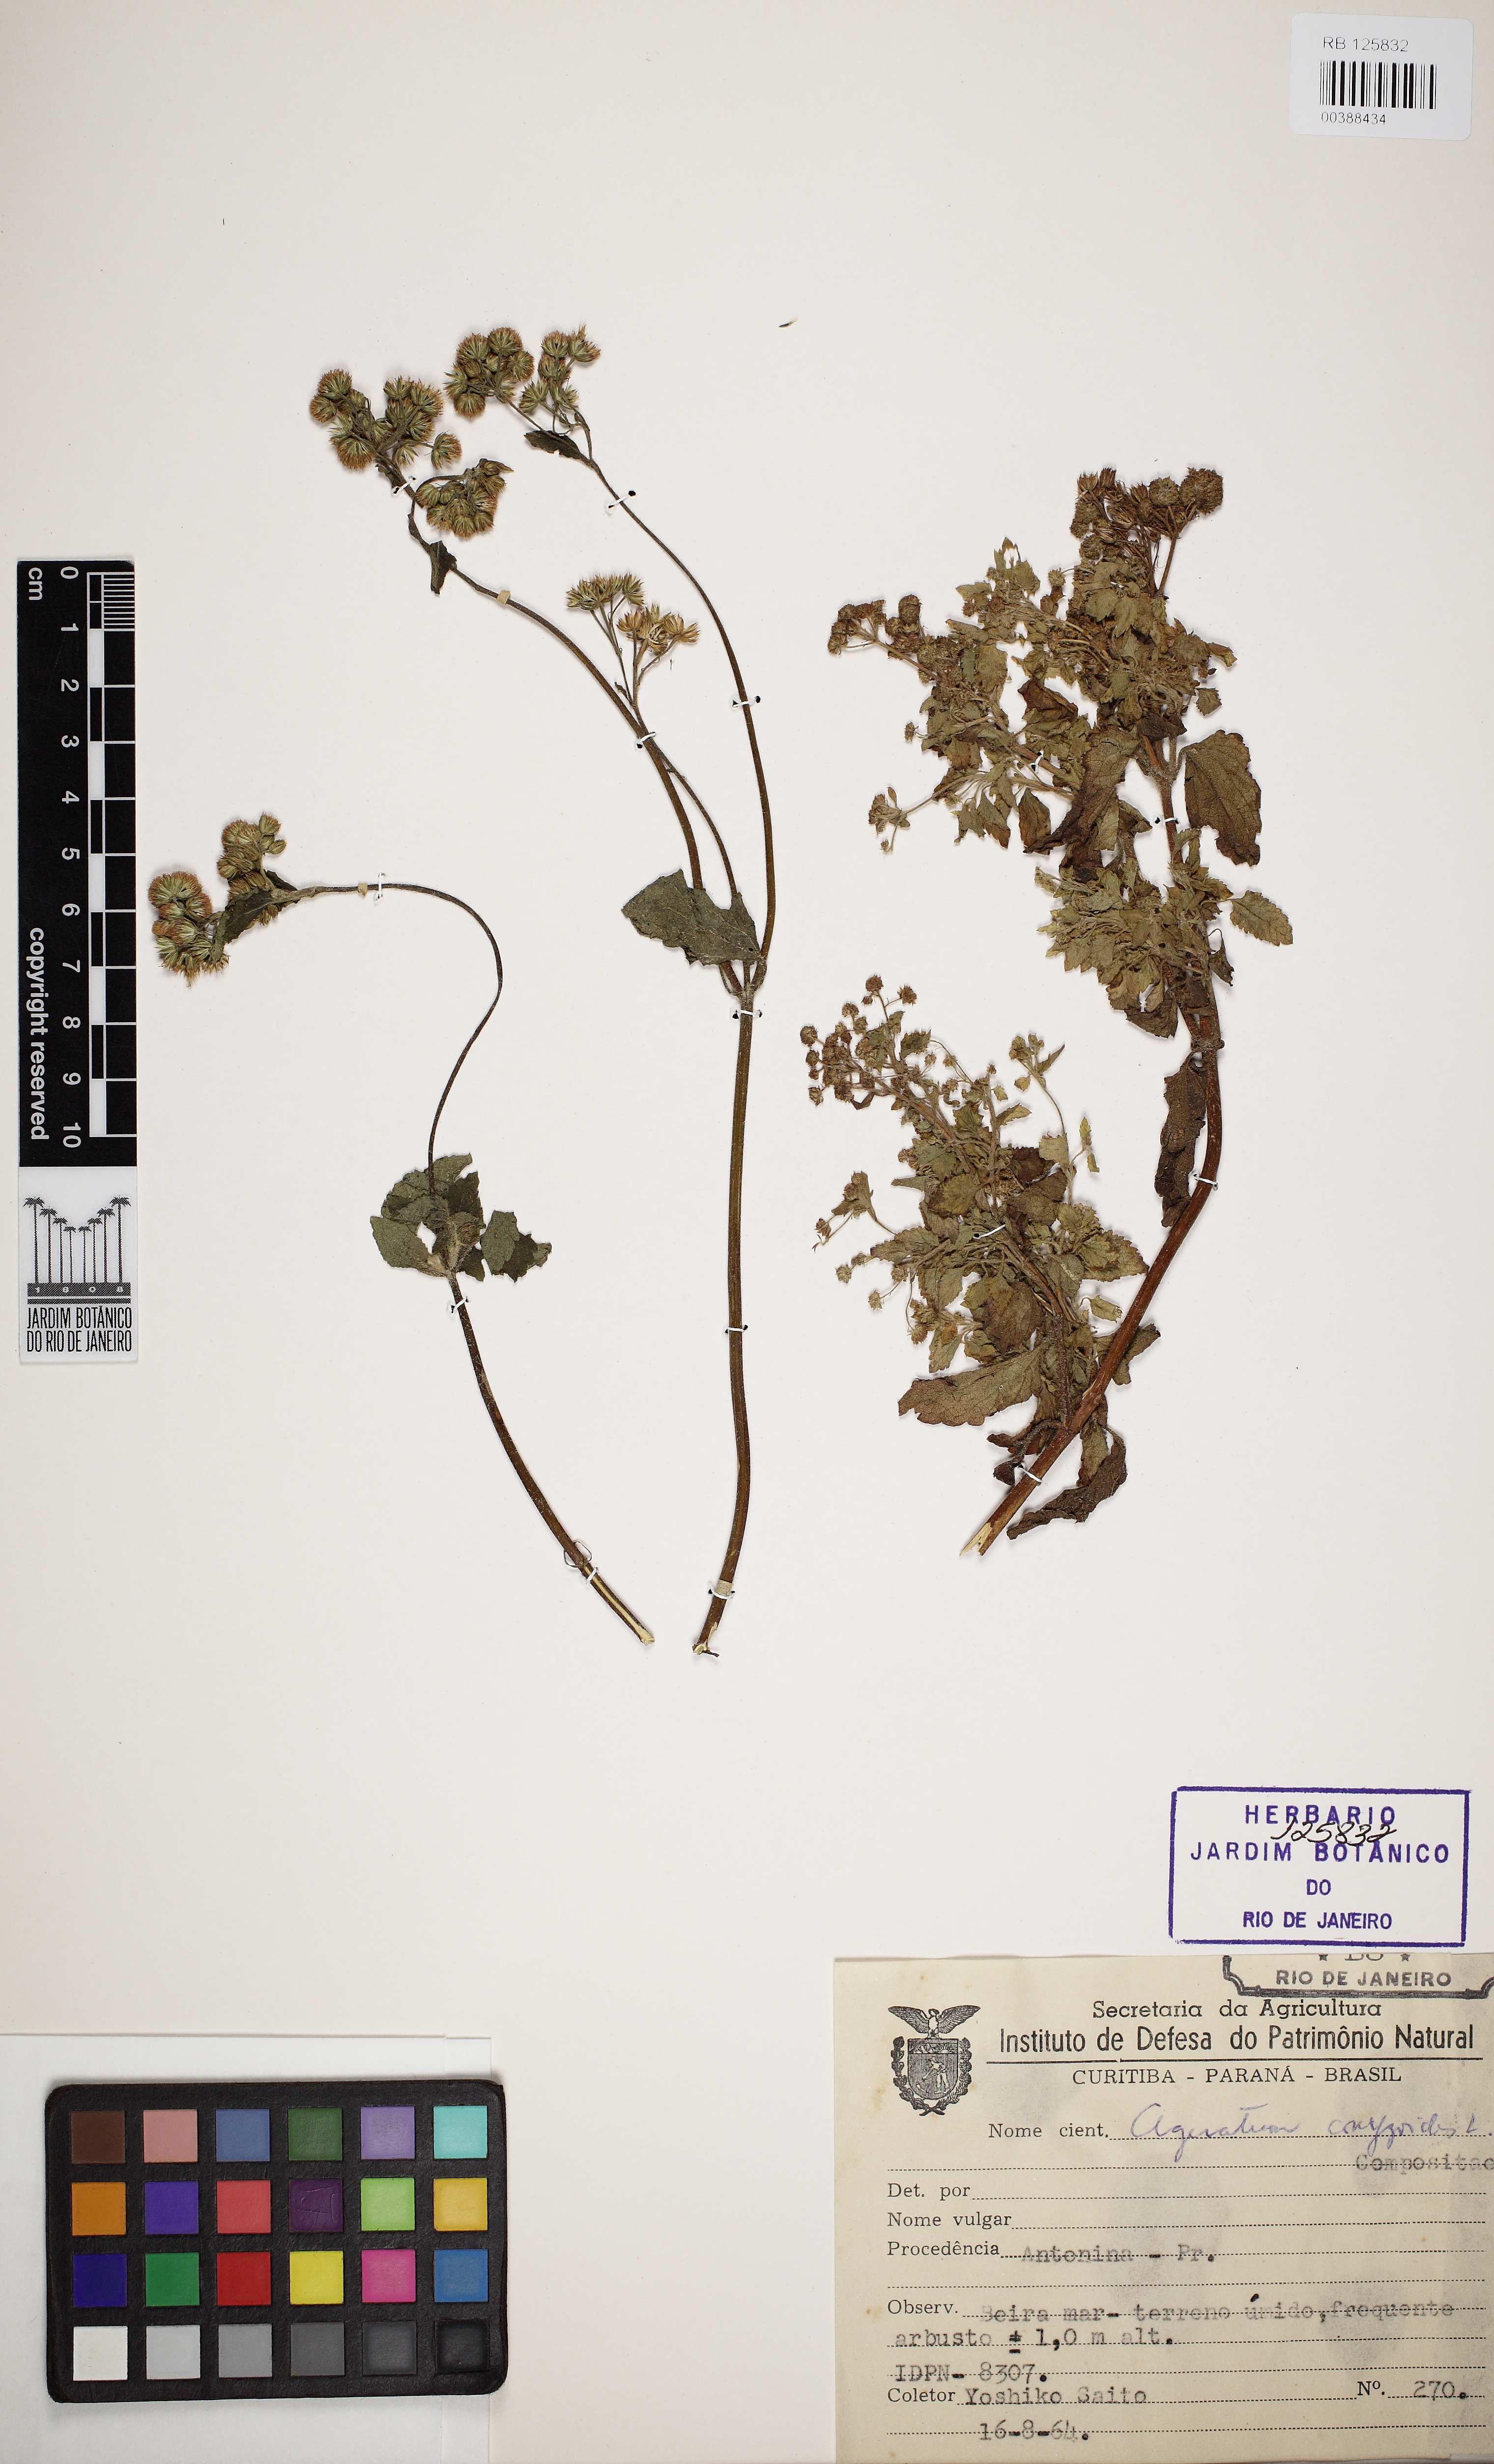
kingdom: Plantae
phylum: Tracheophyta
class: Magnoliopsida
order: Asterales
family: Asteraceae
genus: Ageratum
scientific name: Ageratum conyzoides
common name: Tropical whiteweed
